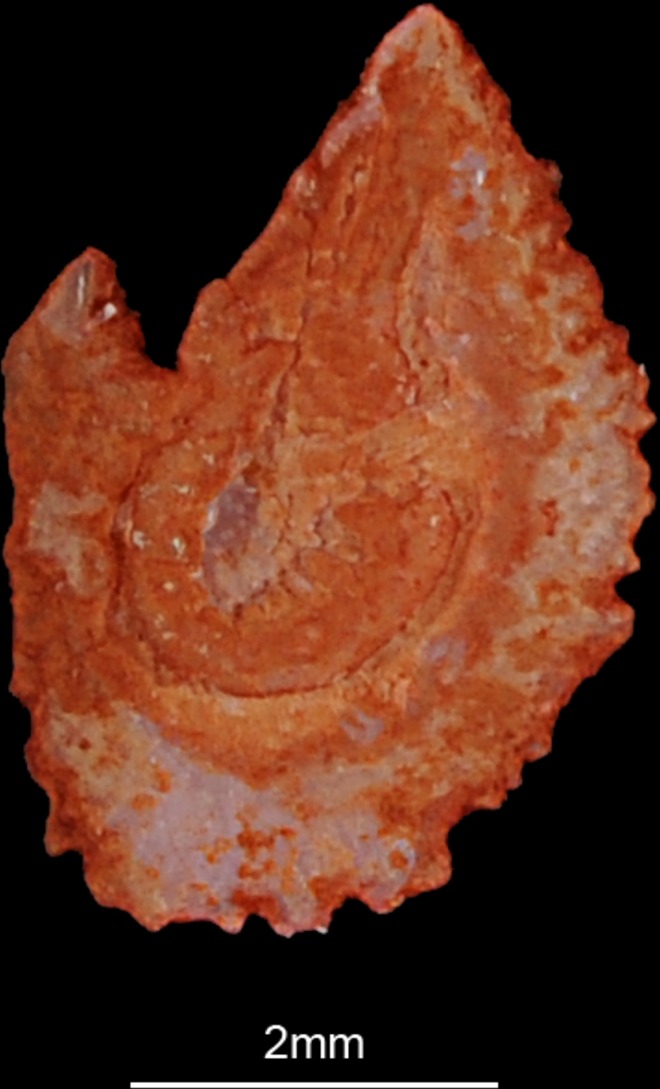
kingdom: Animalia
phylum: Chordata
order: Cypriniformes
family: Cyprinidae
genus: Cyprinus
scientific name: Cyprinus carpio
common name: Common carp
